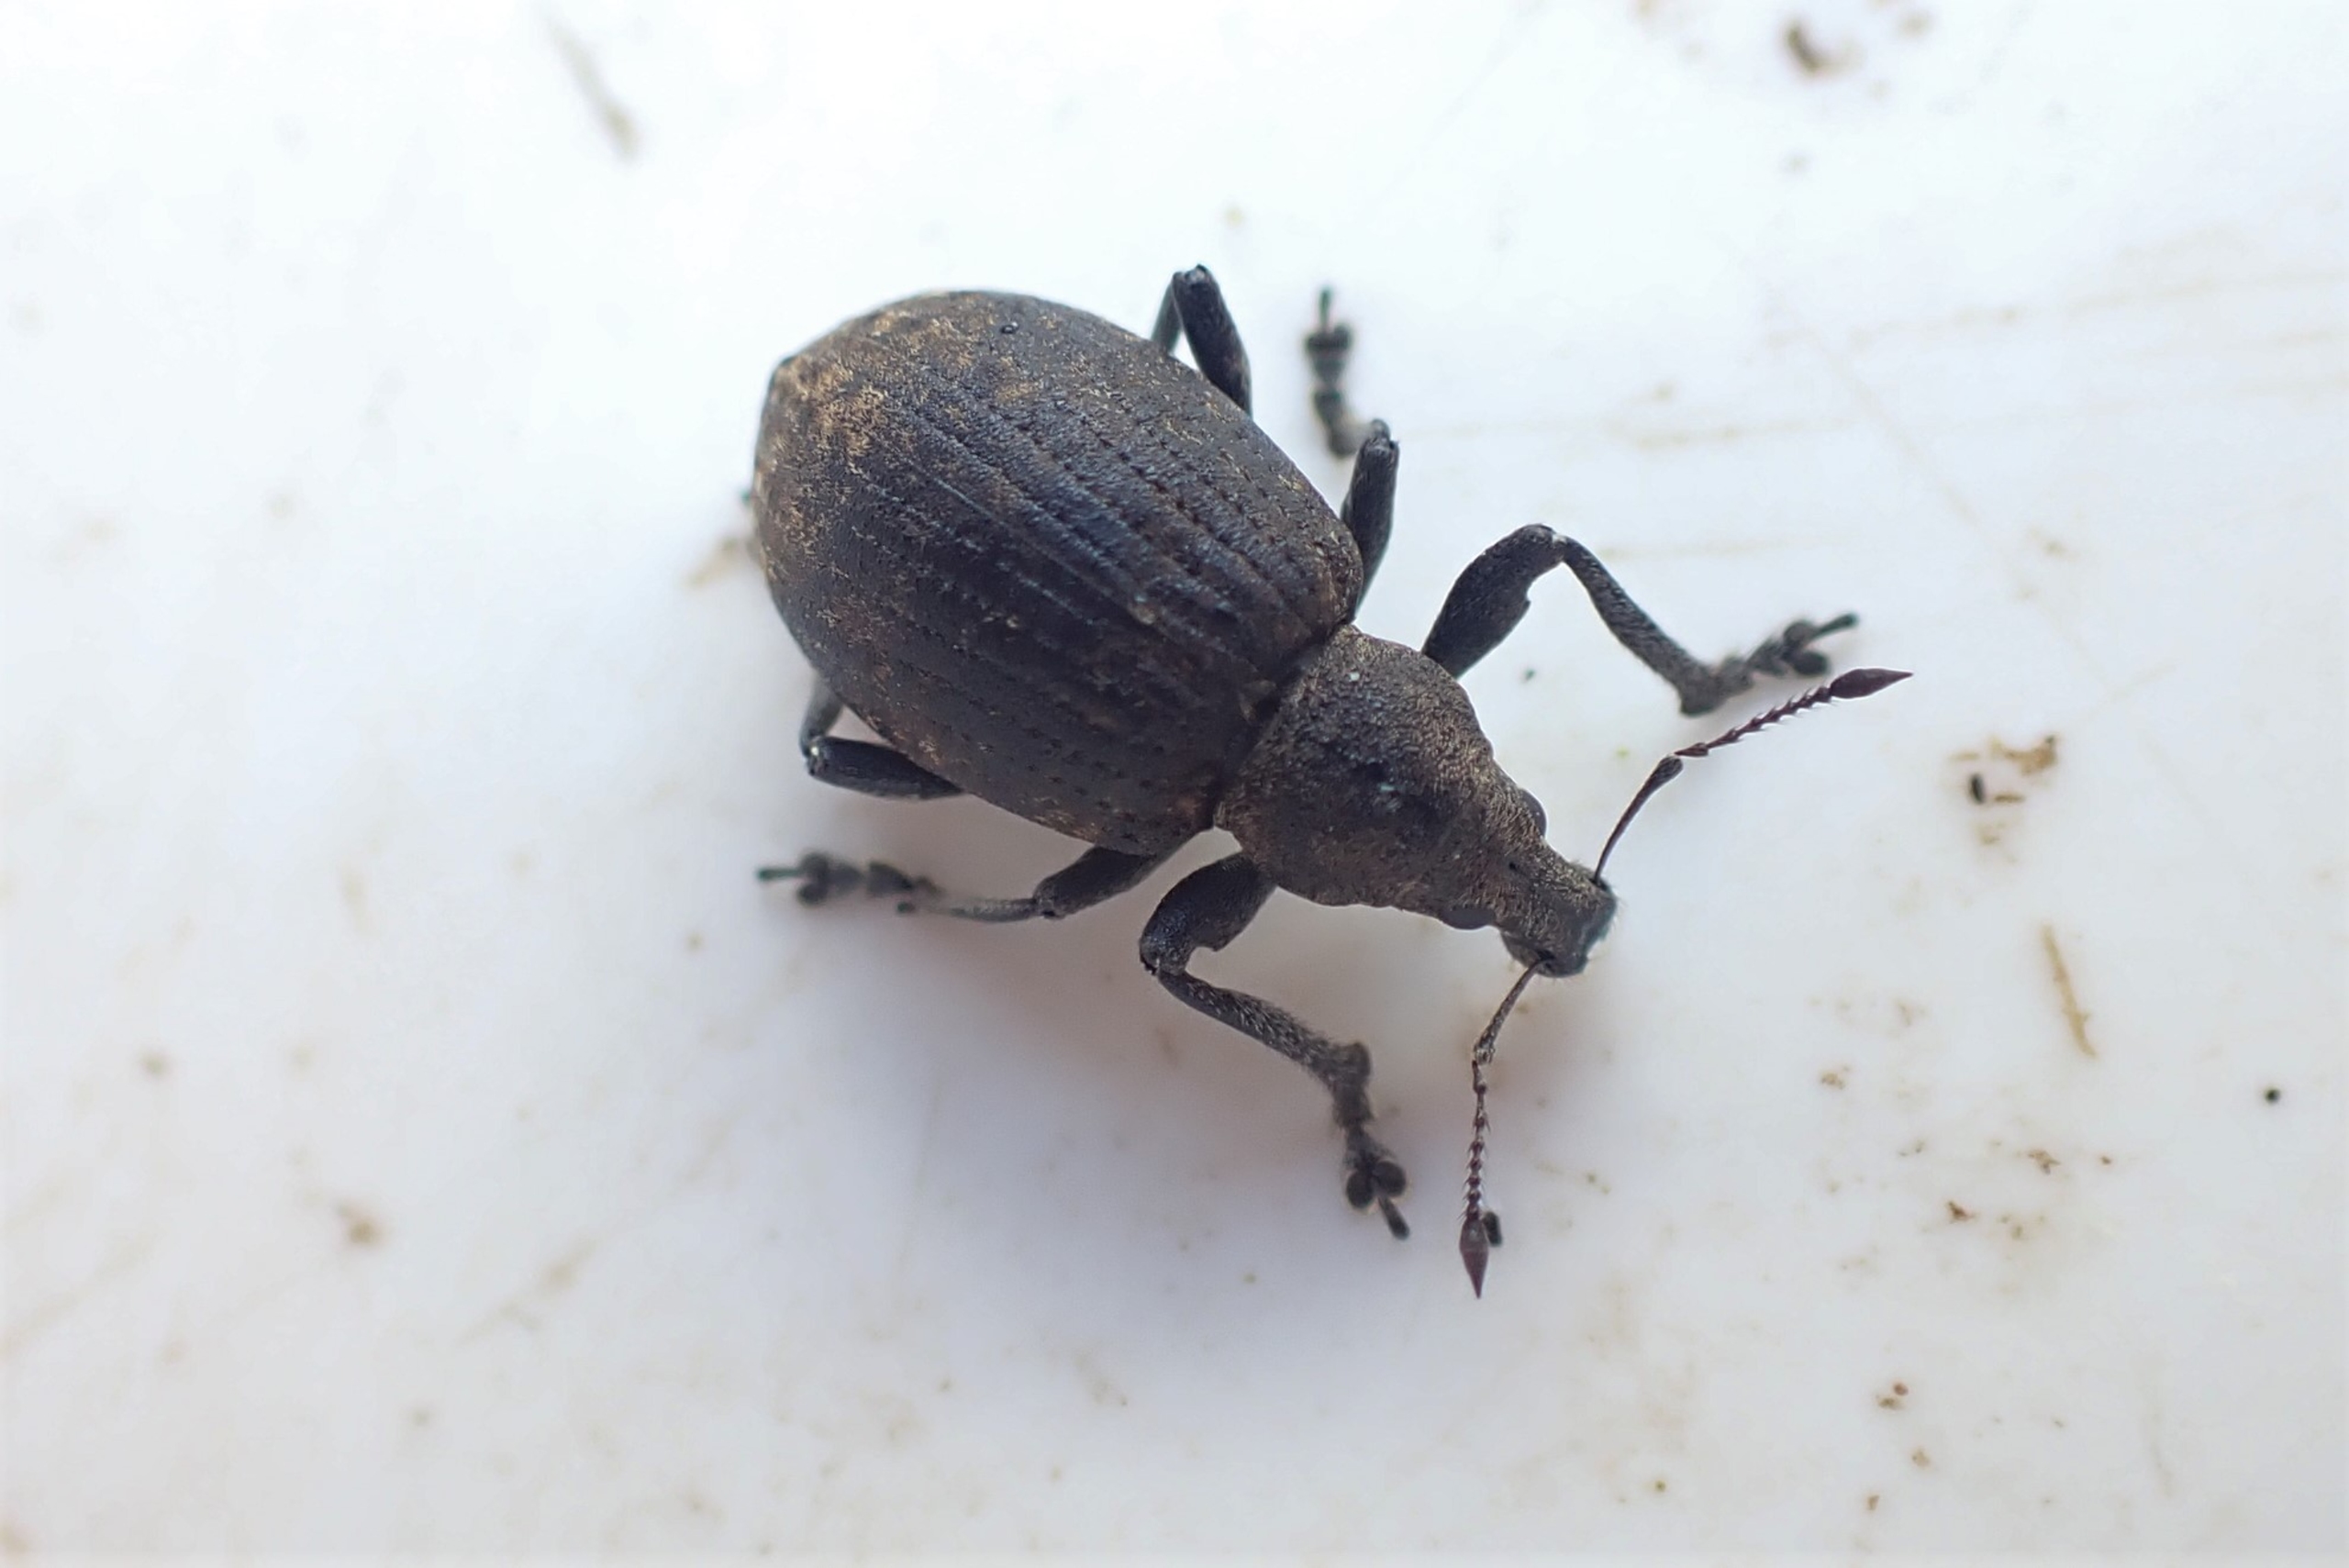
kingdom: Animalia
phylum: Arthropoda
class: Insecta
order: Coleoptera
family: Curculionidae
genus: Liophloeus
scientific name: Liophloeus tessulatus
